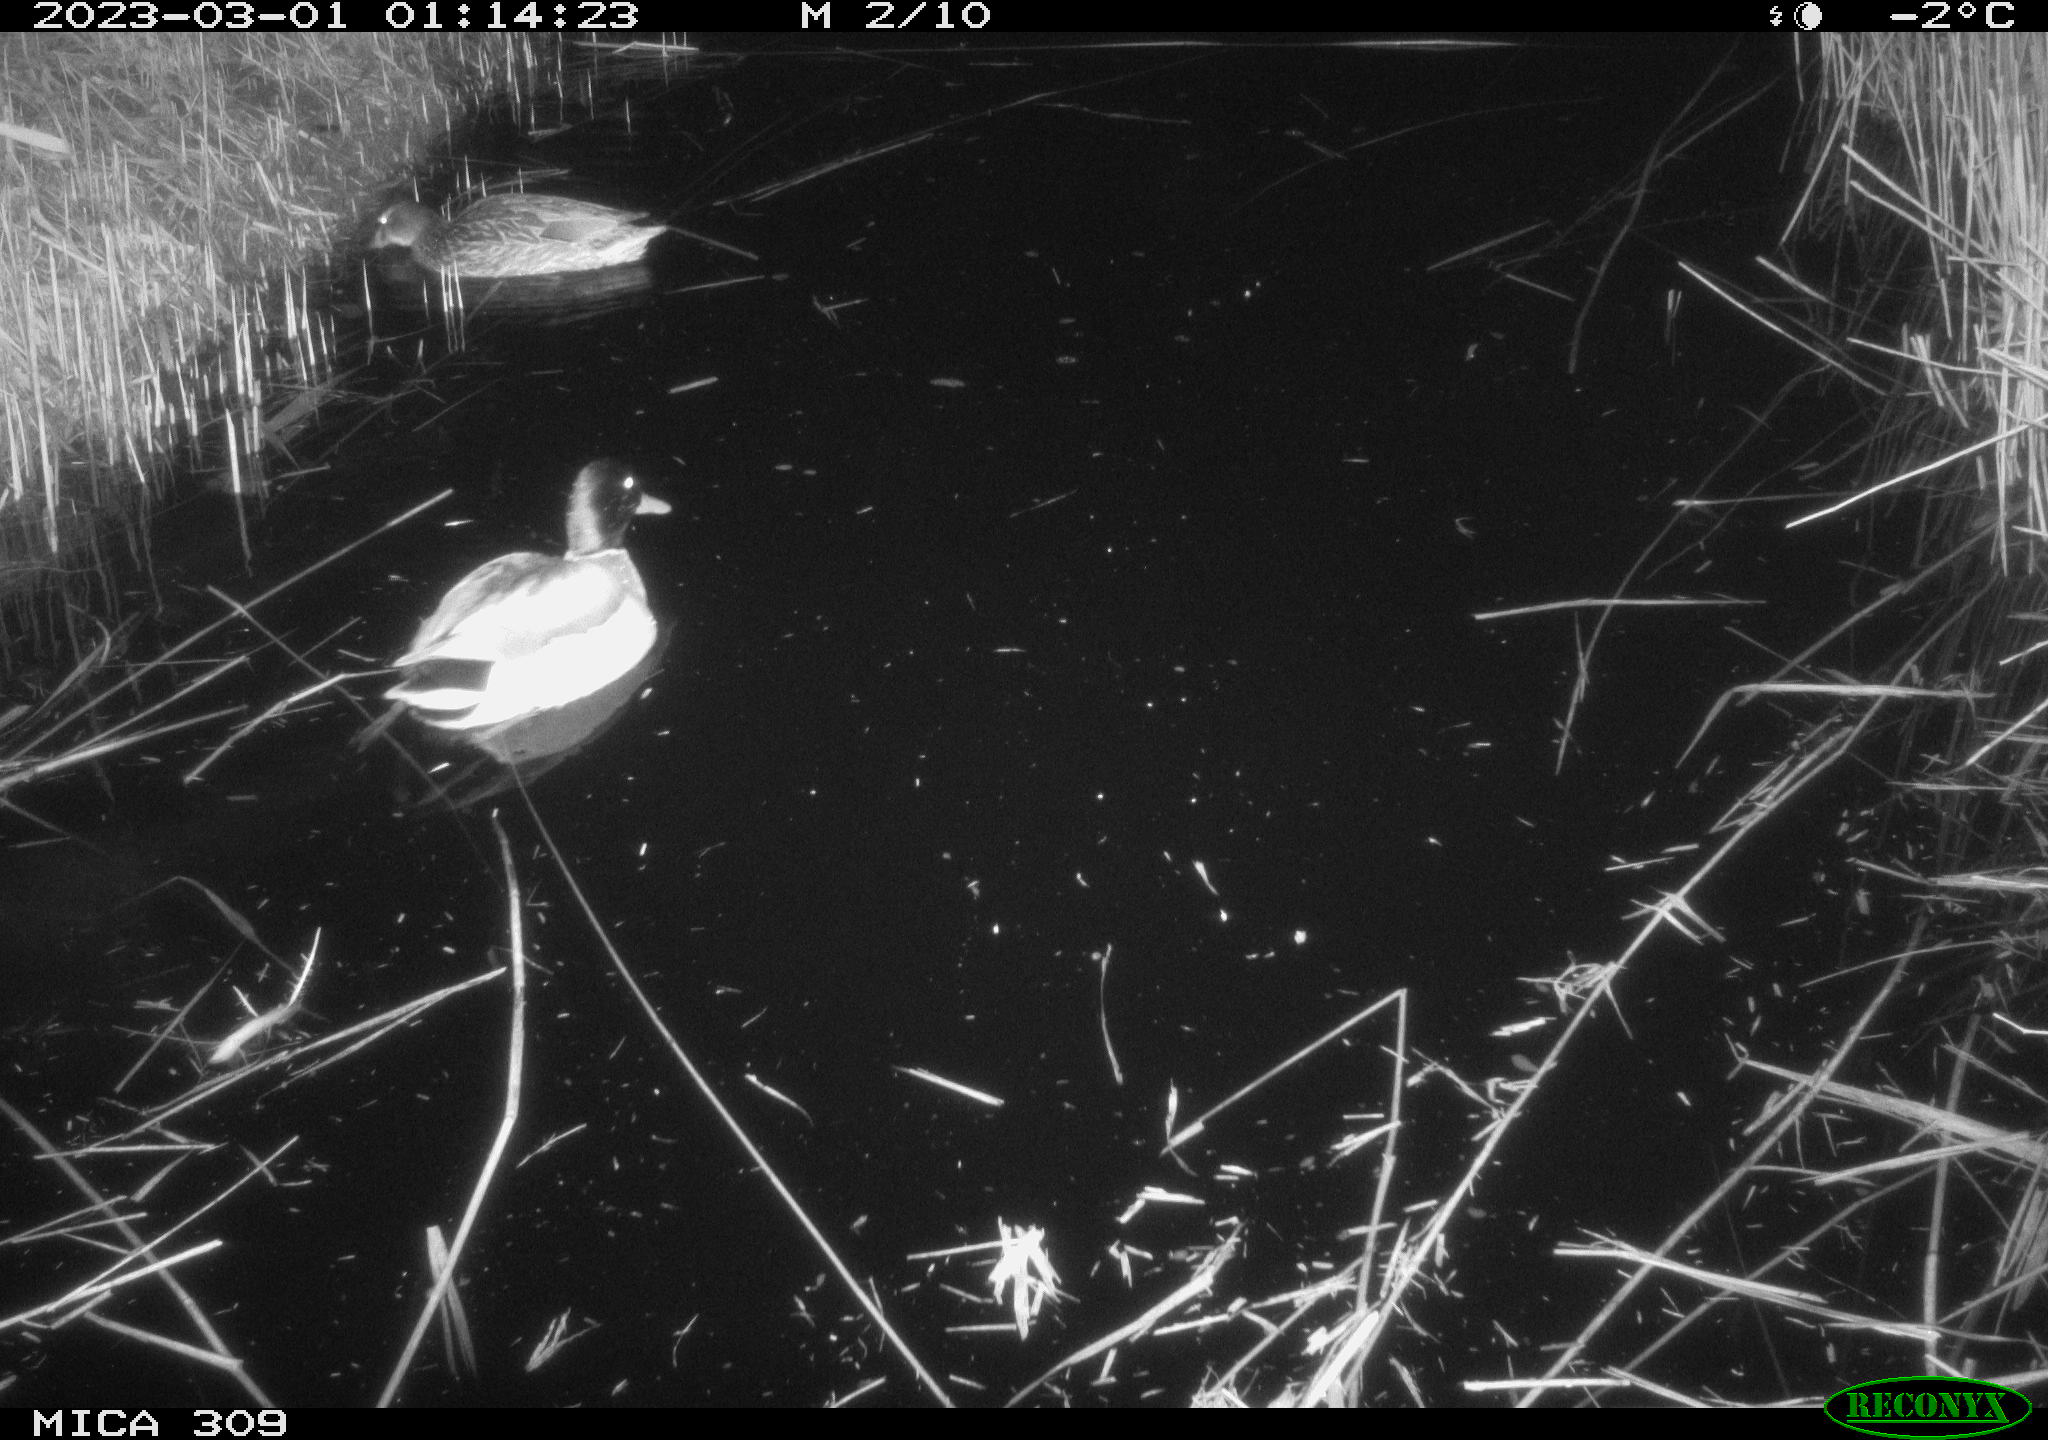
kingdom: Animalia
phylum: Chordata
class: Aves
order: Anseriformes
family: Anatidae
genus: Anas
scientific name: Anas
